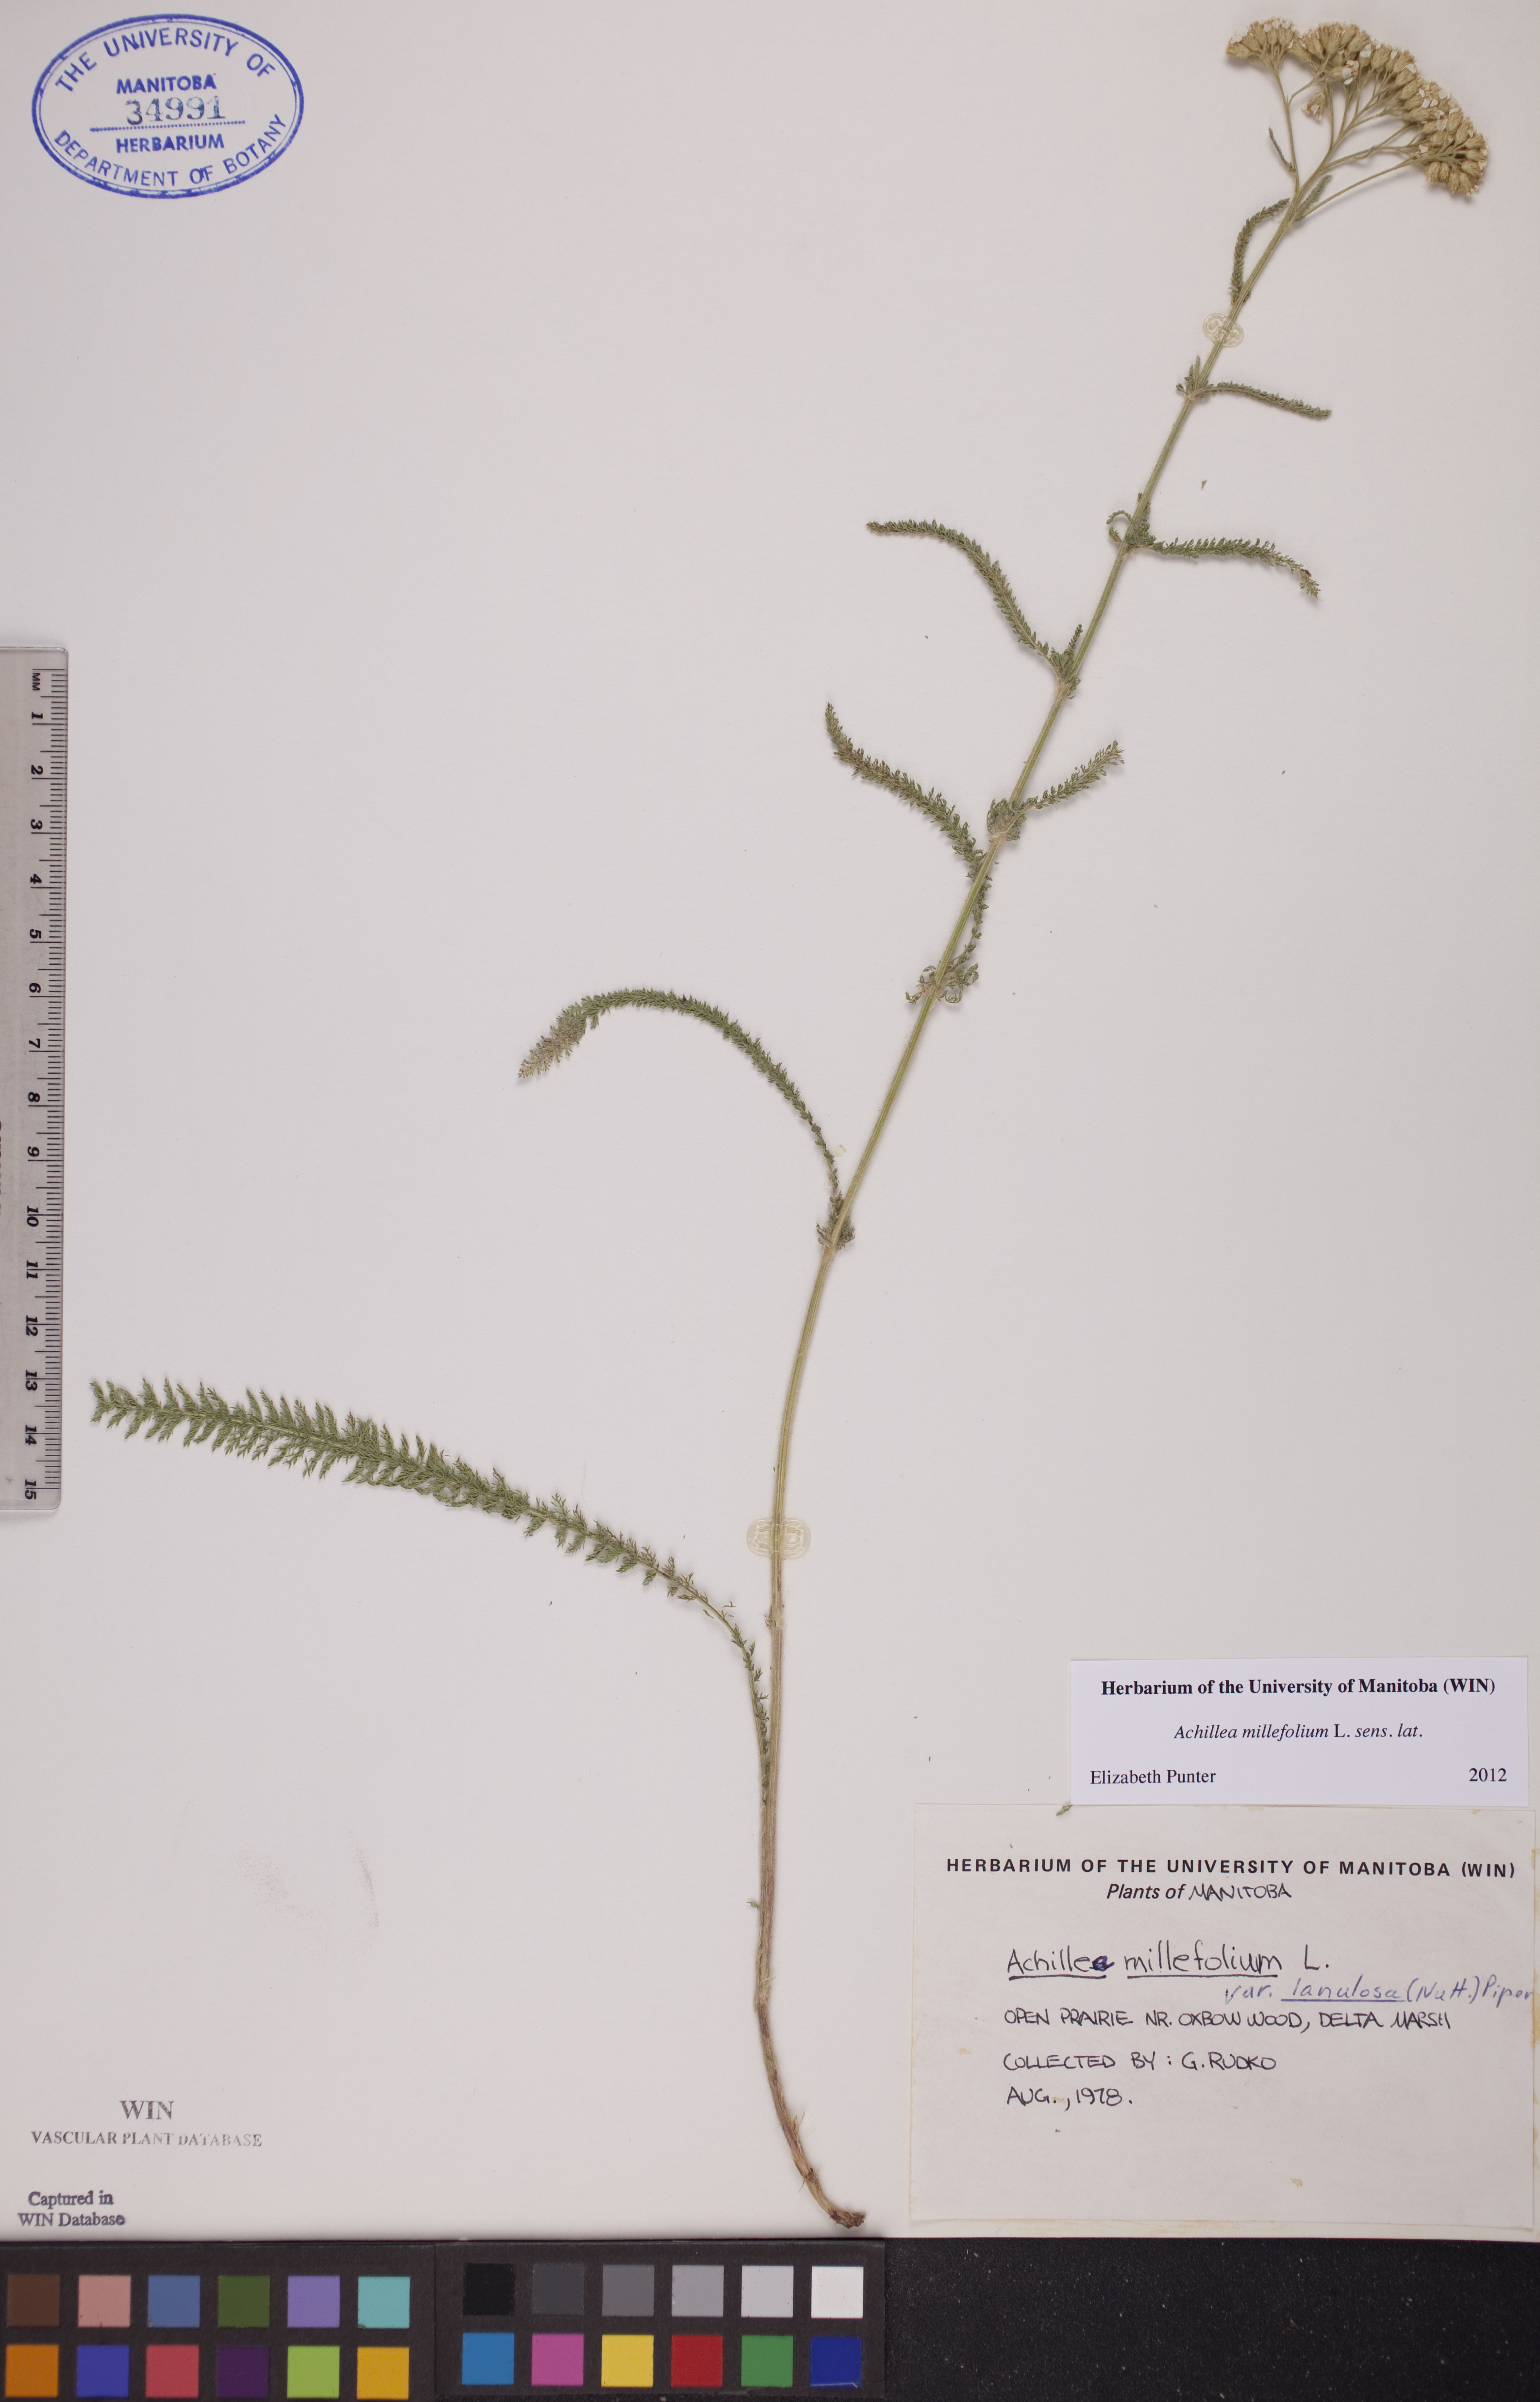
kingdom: Plantae
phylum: Tracheophyta
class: Magnoliopsida
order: Asterales
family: Asteraceae
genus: Achillea
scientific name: Achillea millefolium
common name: Yarrow
